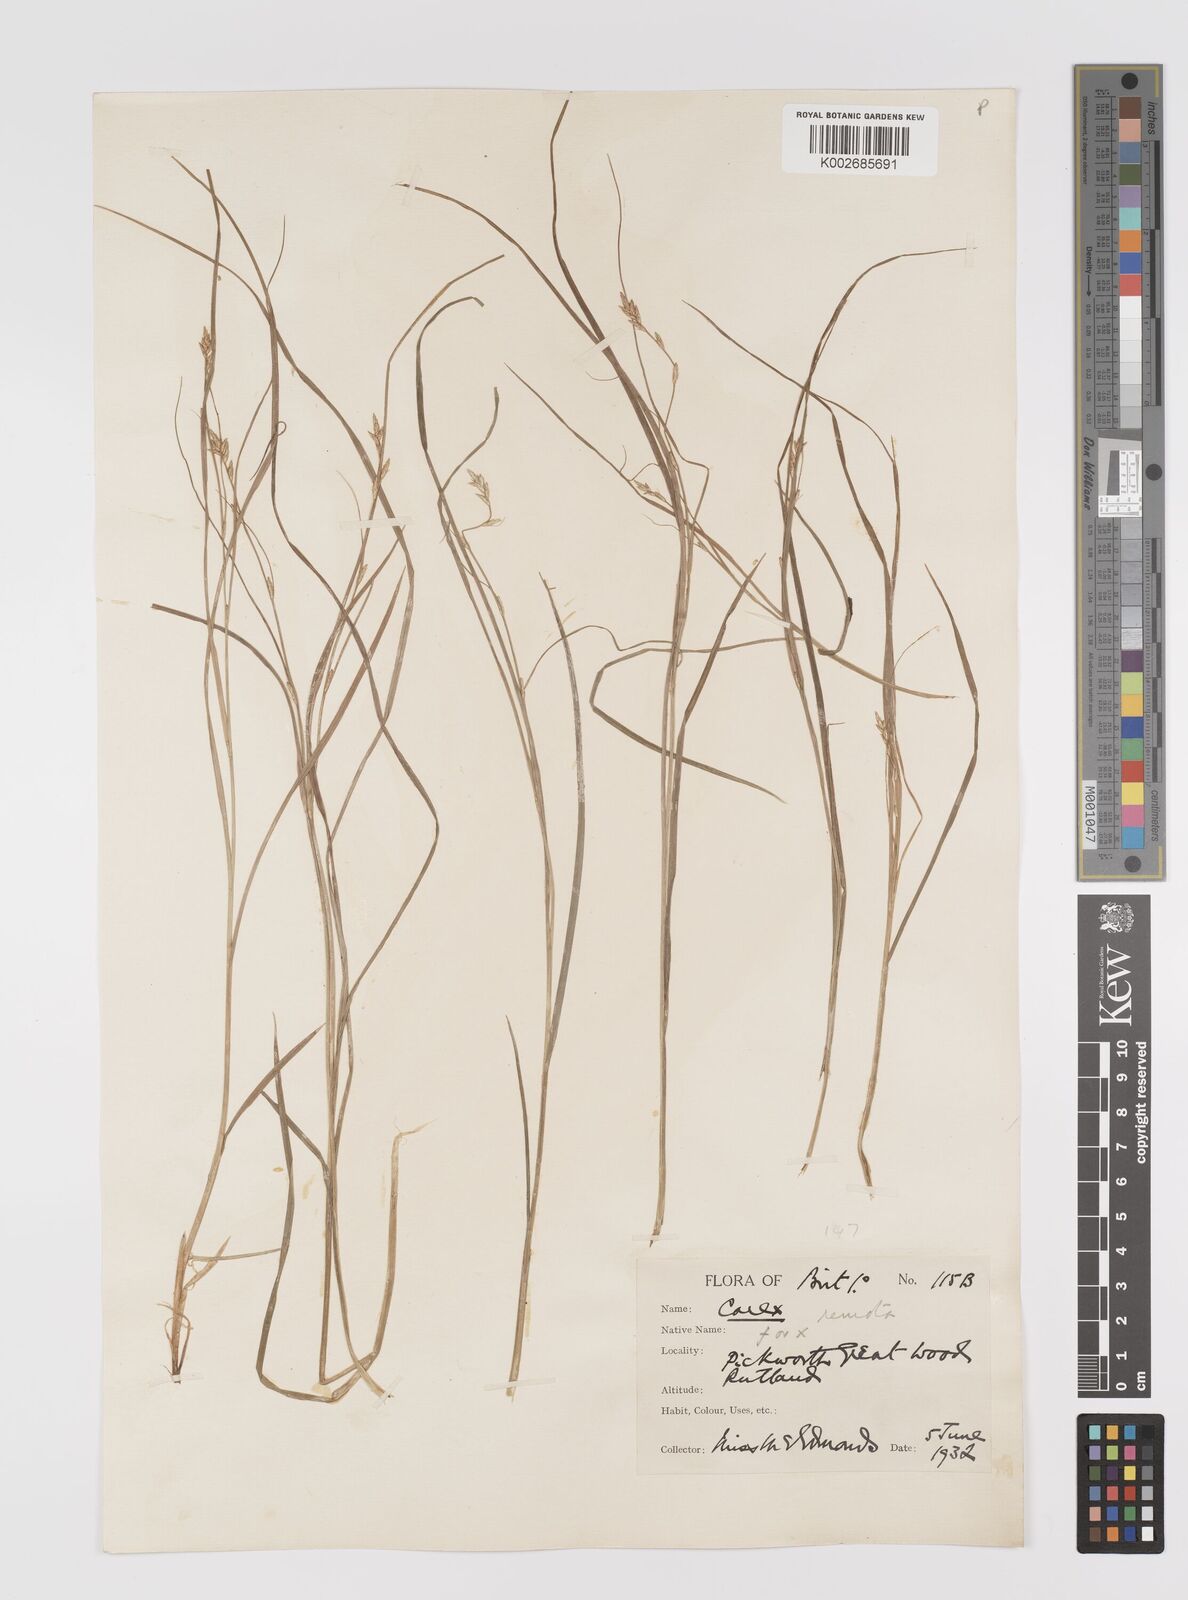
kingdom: Plantae
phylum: Tracheophyta
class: Liliopsida
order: Poales
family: Cyperaceae
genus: Carex
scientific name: Carex remota
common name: Remote sedge
